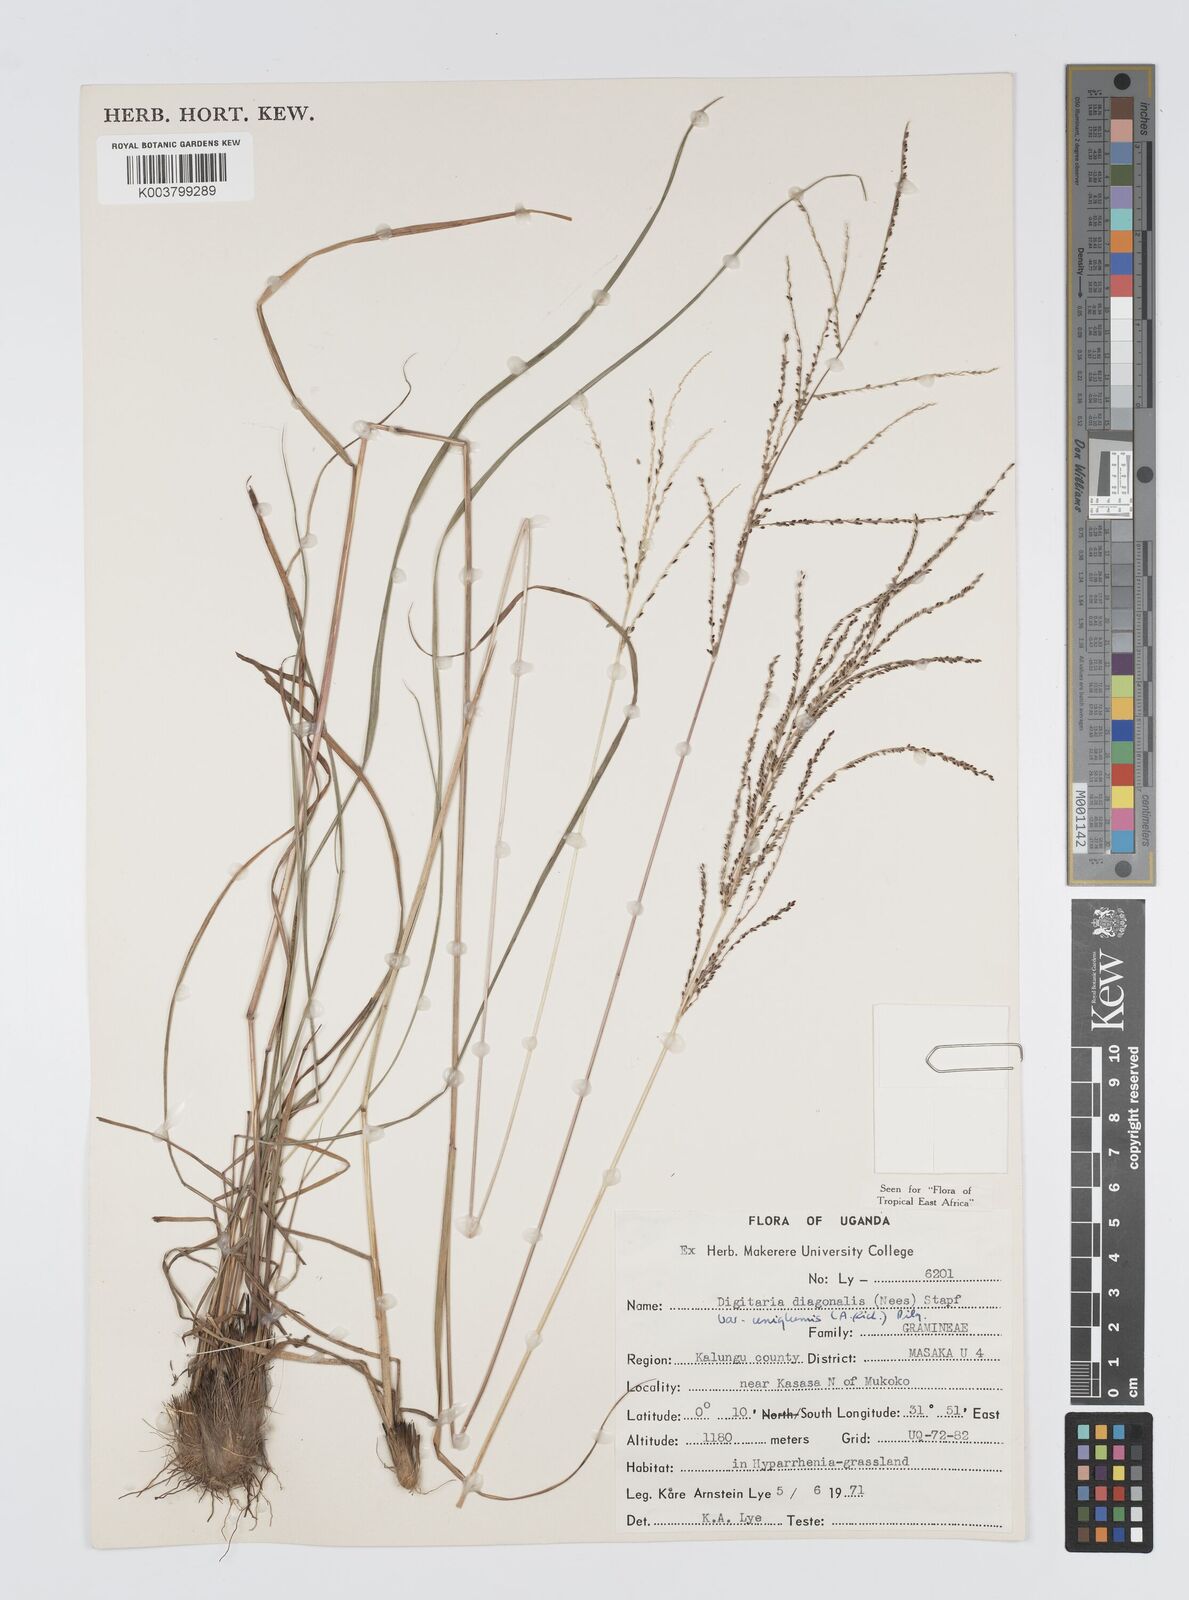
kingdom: Plantae
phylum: Tracheophyta
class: Liliopsida
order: Poales
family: Poaceae
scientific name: Poaceae
